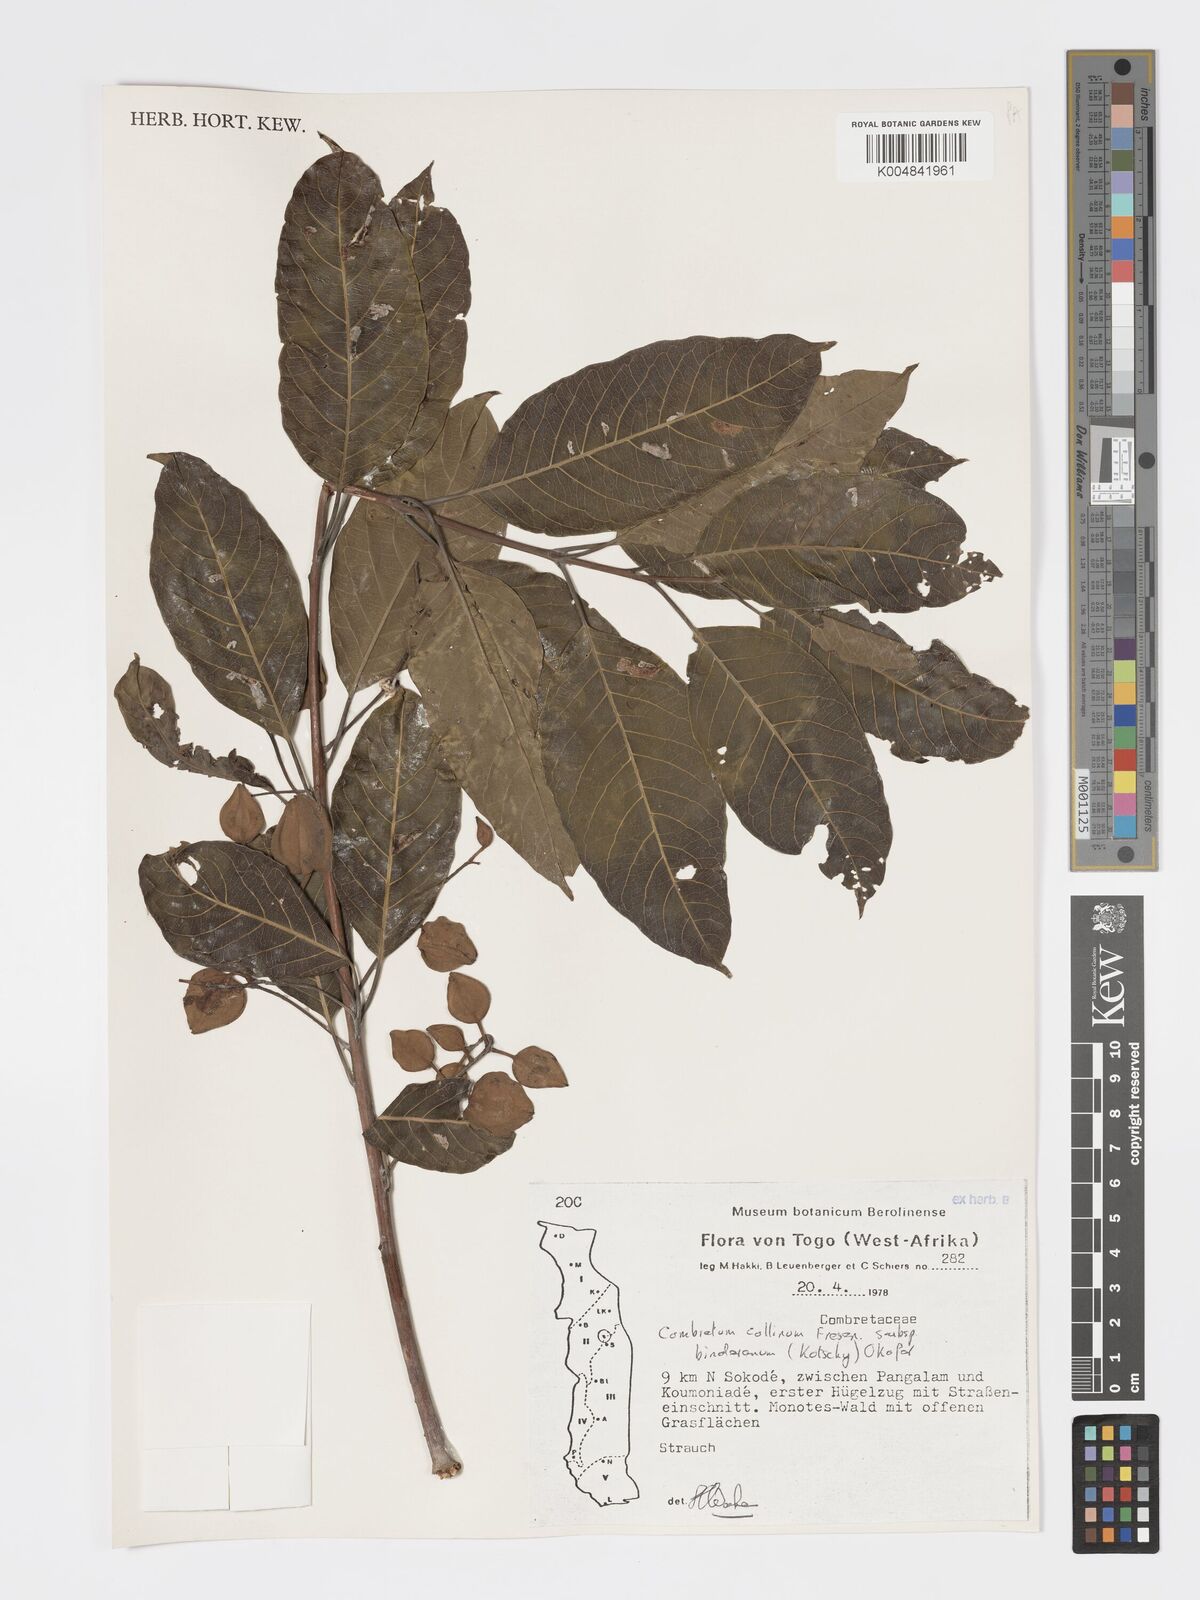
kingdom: Plantae
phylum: Tracheophyta
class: Magnoliopsida
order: Myrtales
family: Combretaceae
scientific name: Combretaceae
